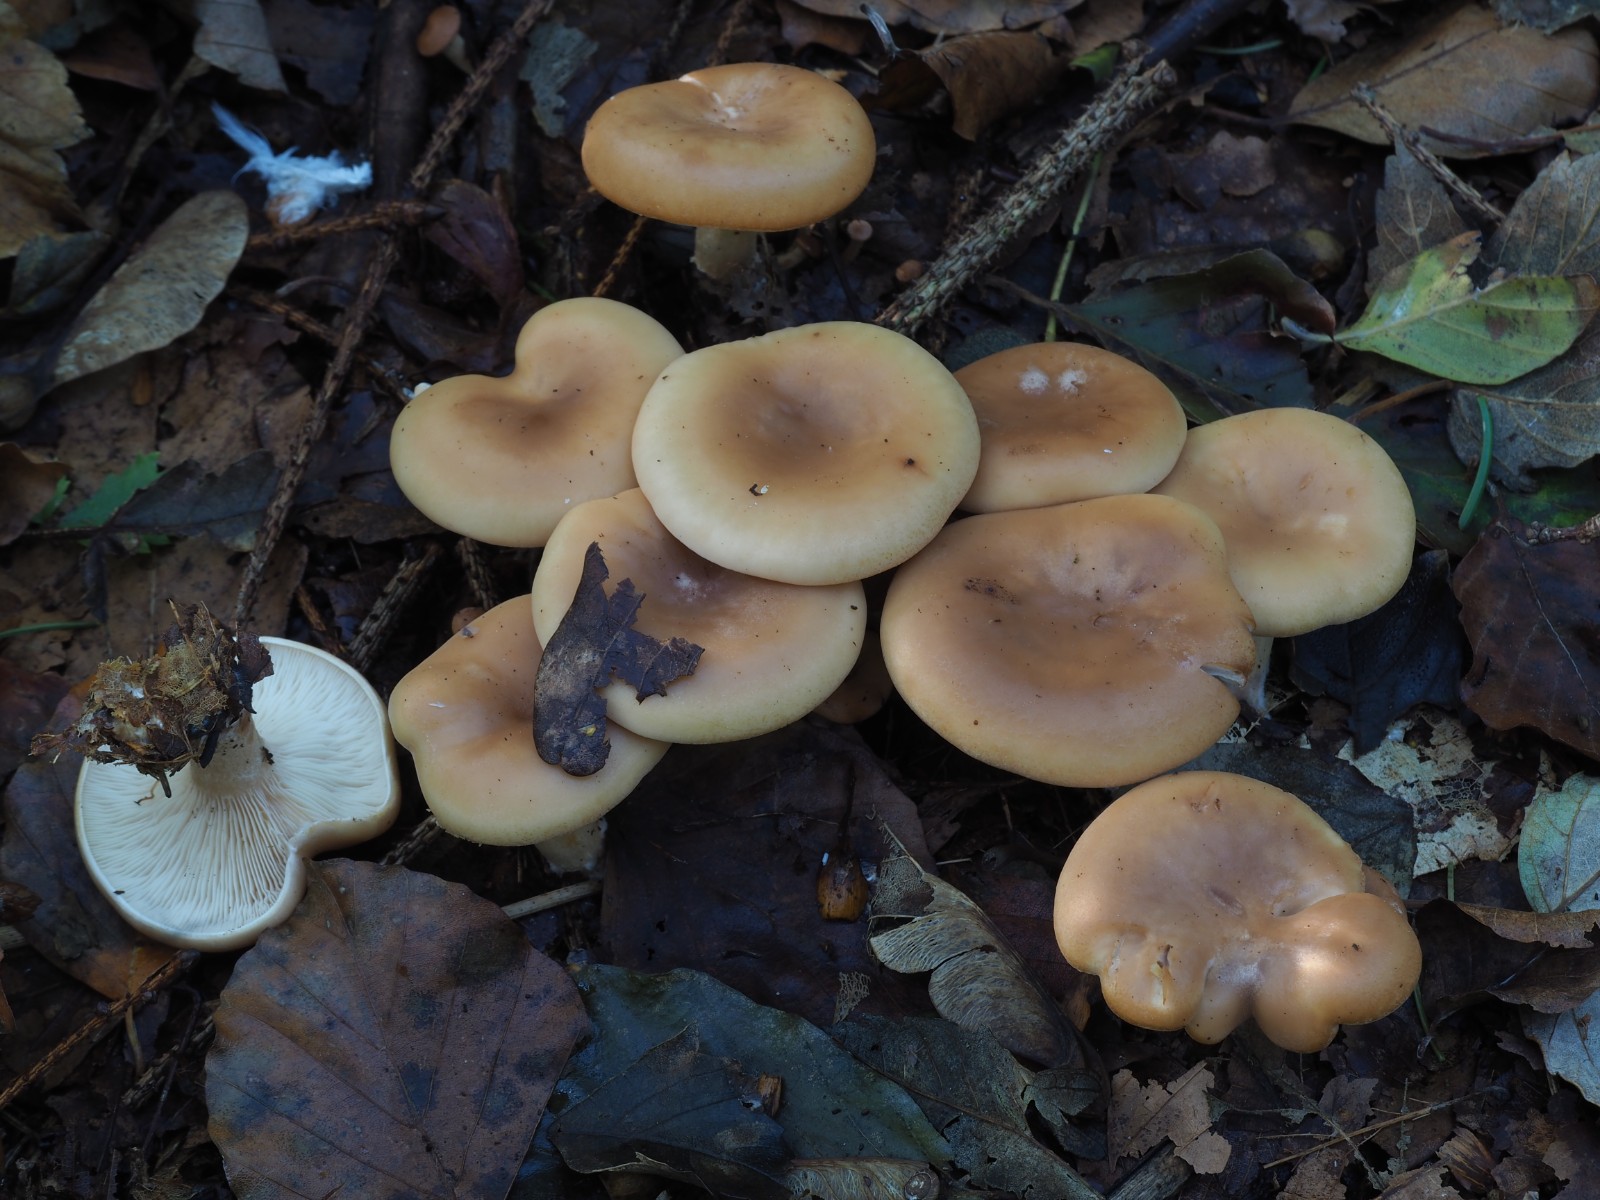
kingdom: Fungi
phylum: Basidiomycota
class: Agaricomycetes
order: Agaricales
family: Tricholomataceae
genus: Paralepista
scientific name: Paralepista flaccida
